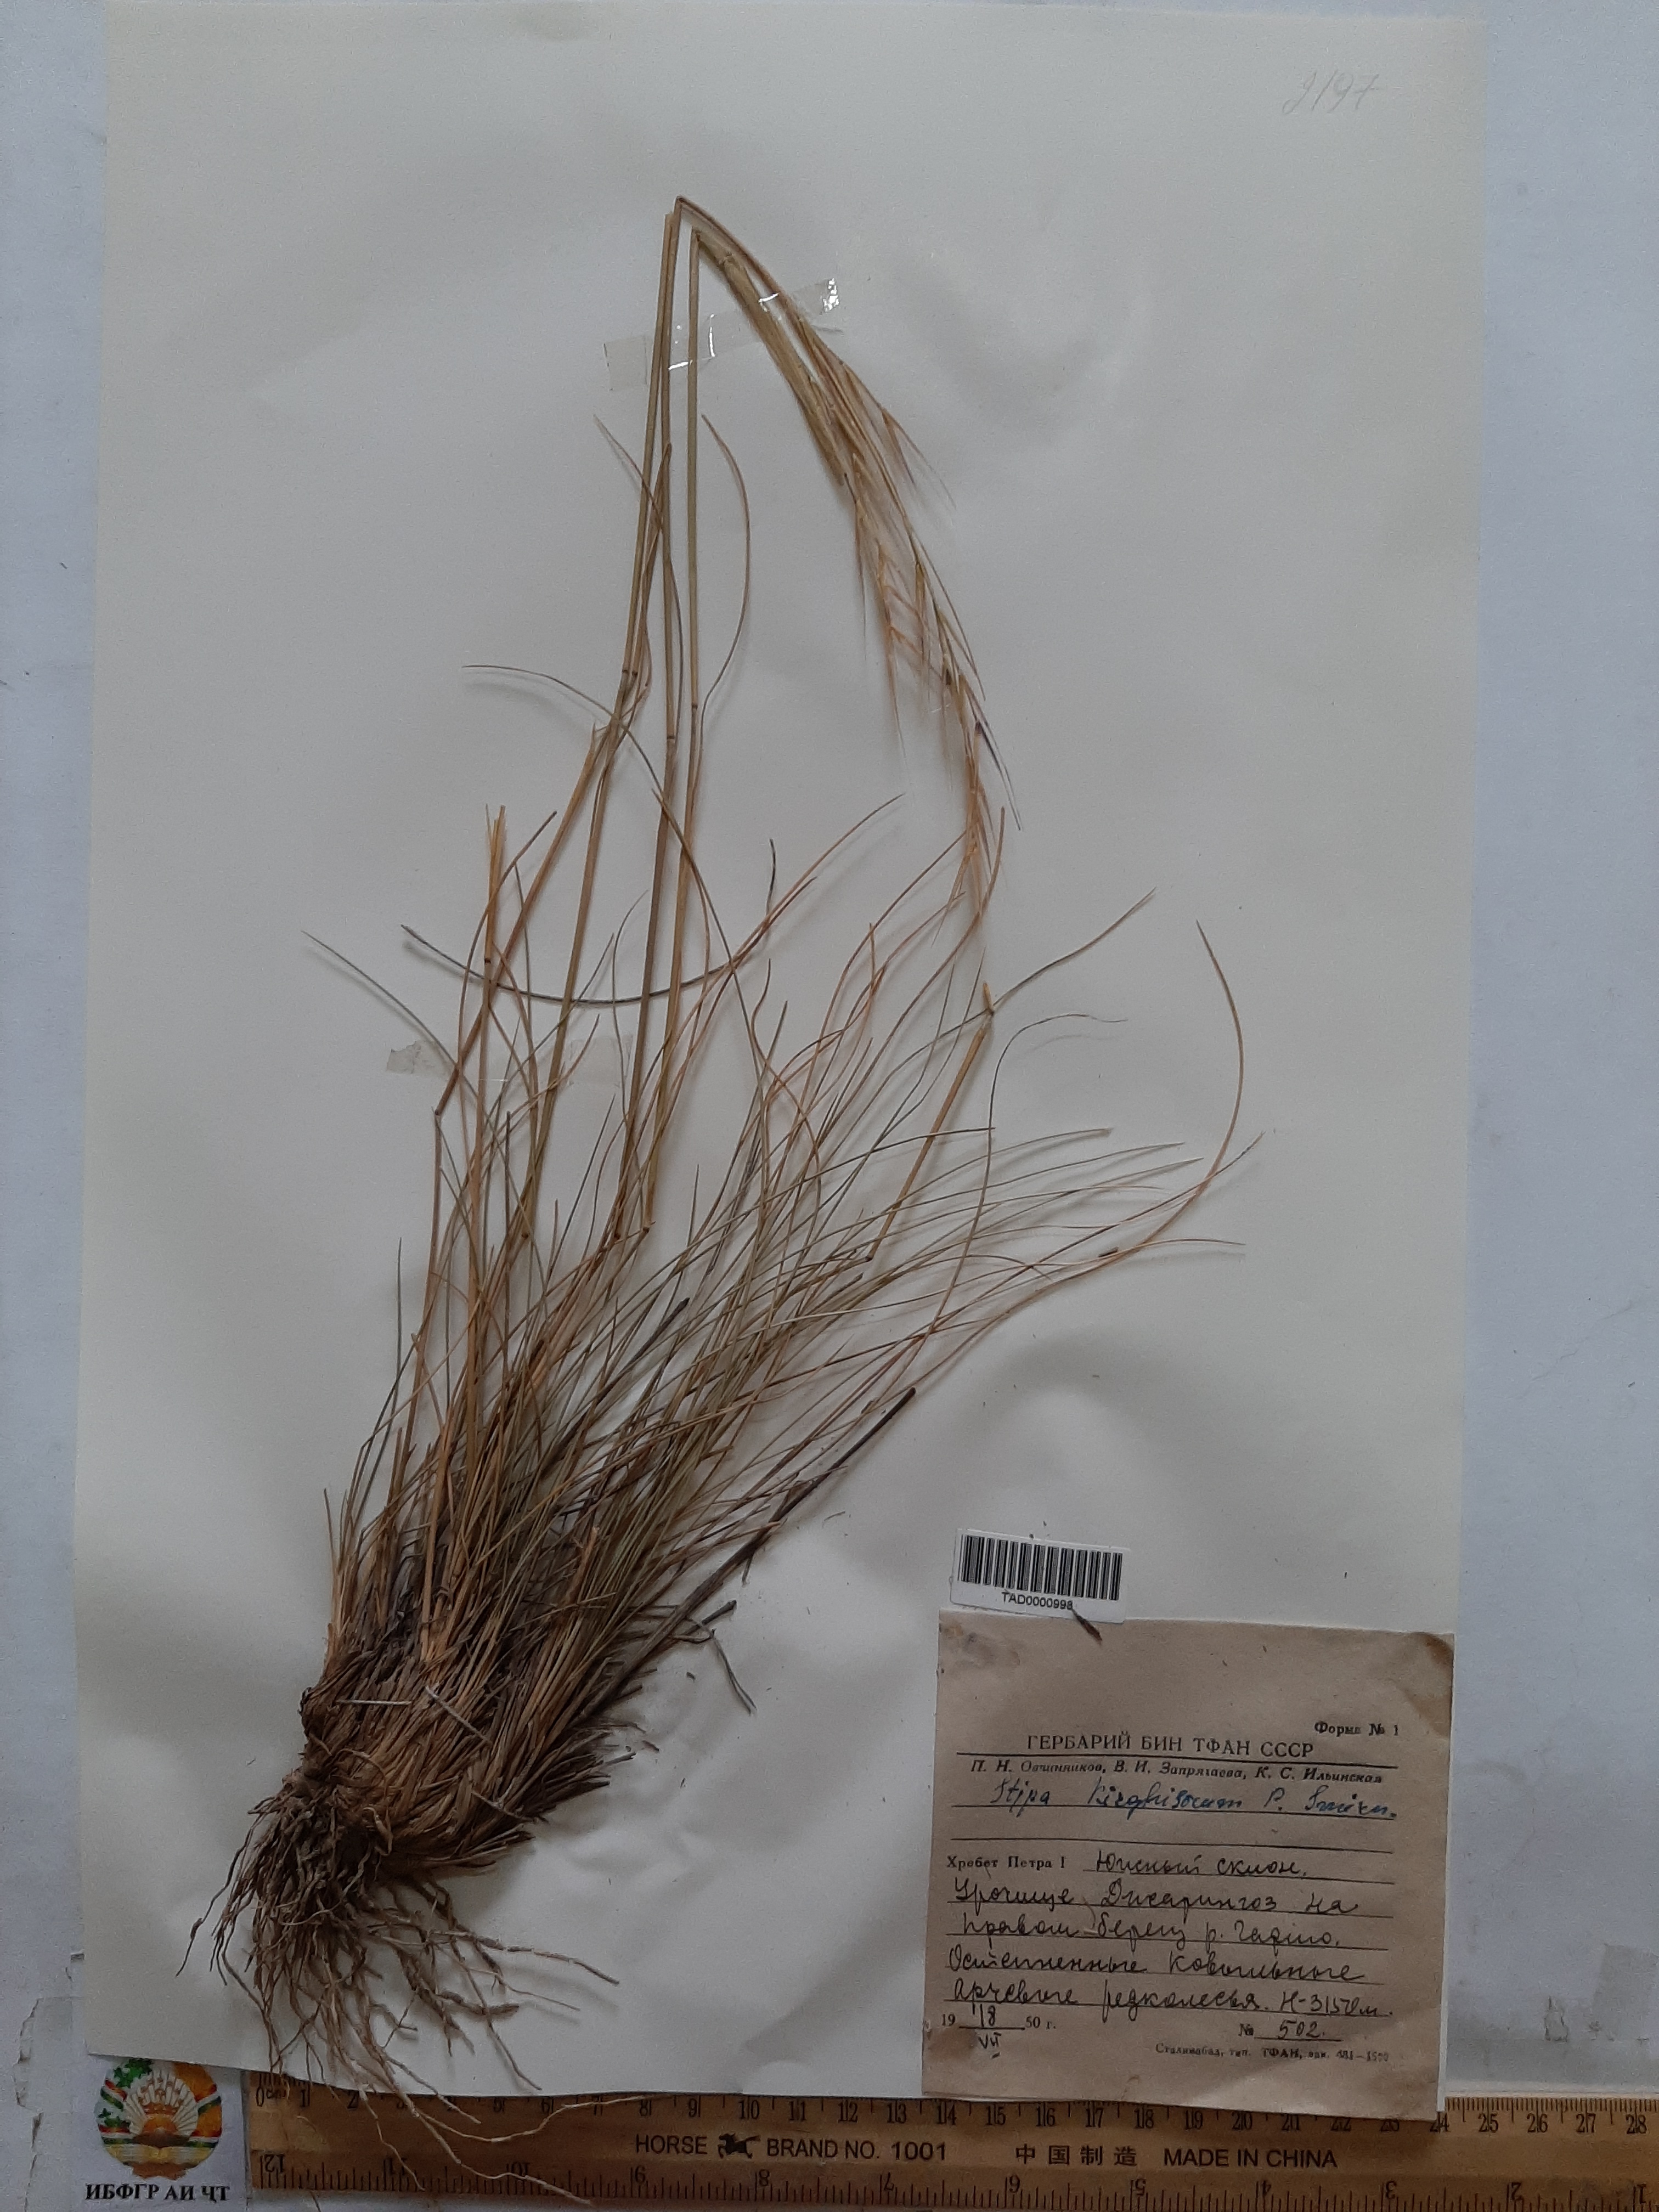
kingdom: Plantae
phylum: Tracheophyta
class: Liliopsida
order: Poales
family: Poaceae
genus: Stipa
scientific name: Stipa kirghisorum
